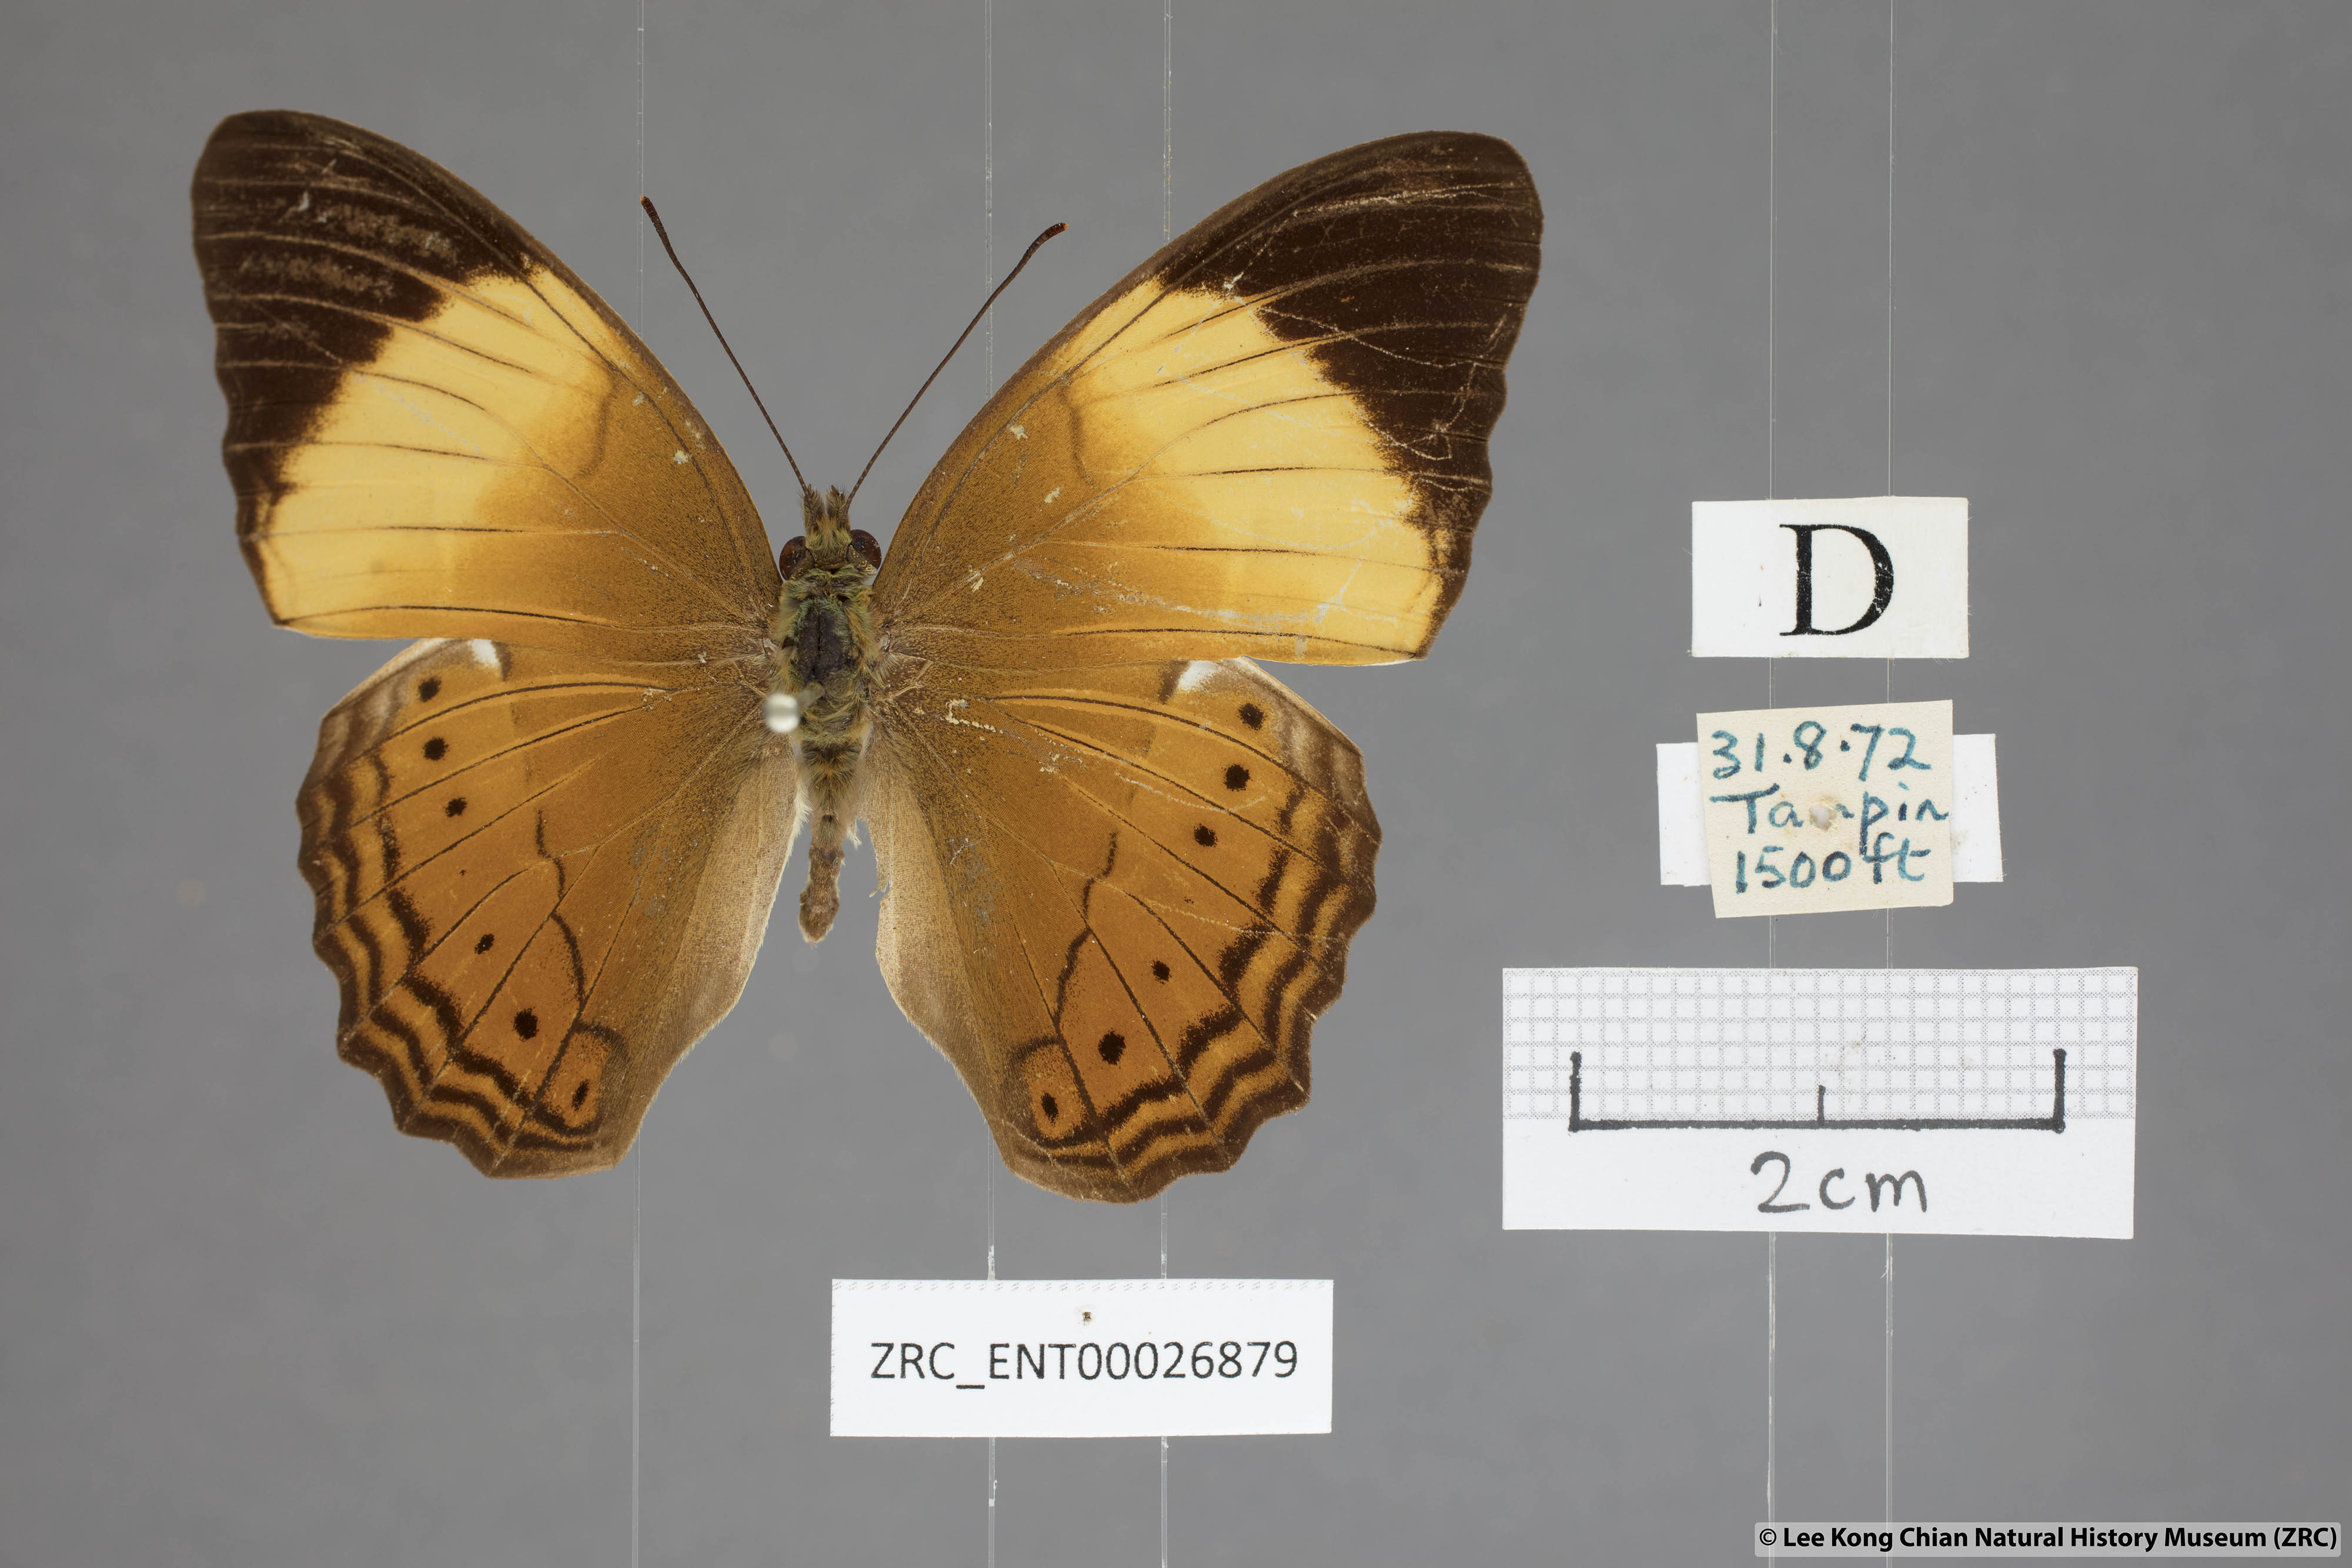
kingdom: Animalia
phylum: Arthropoda
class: Insecta
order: Lepidoptera
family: Nymphalidae
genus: Cirrochroa
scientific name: Cirrochroa orissa
